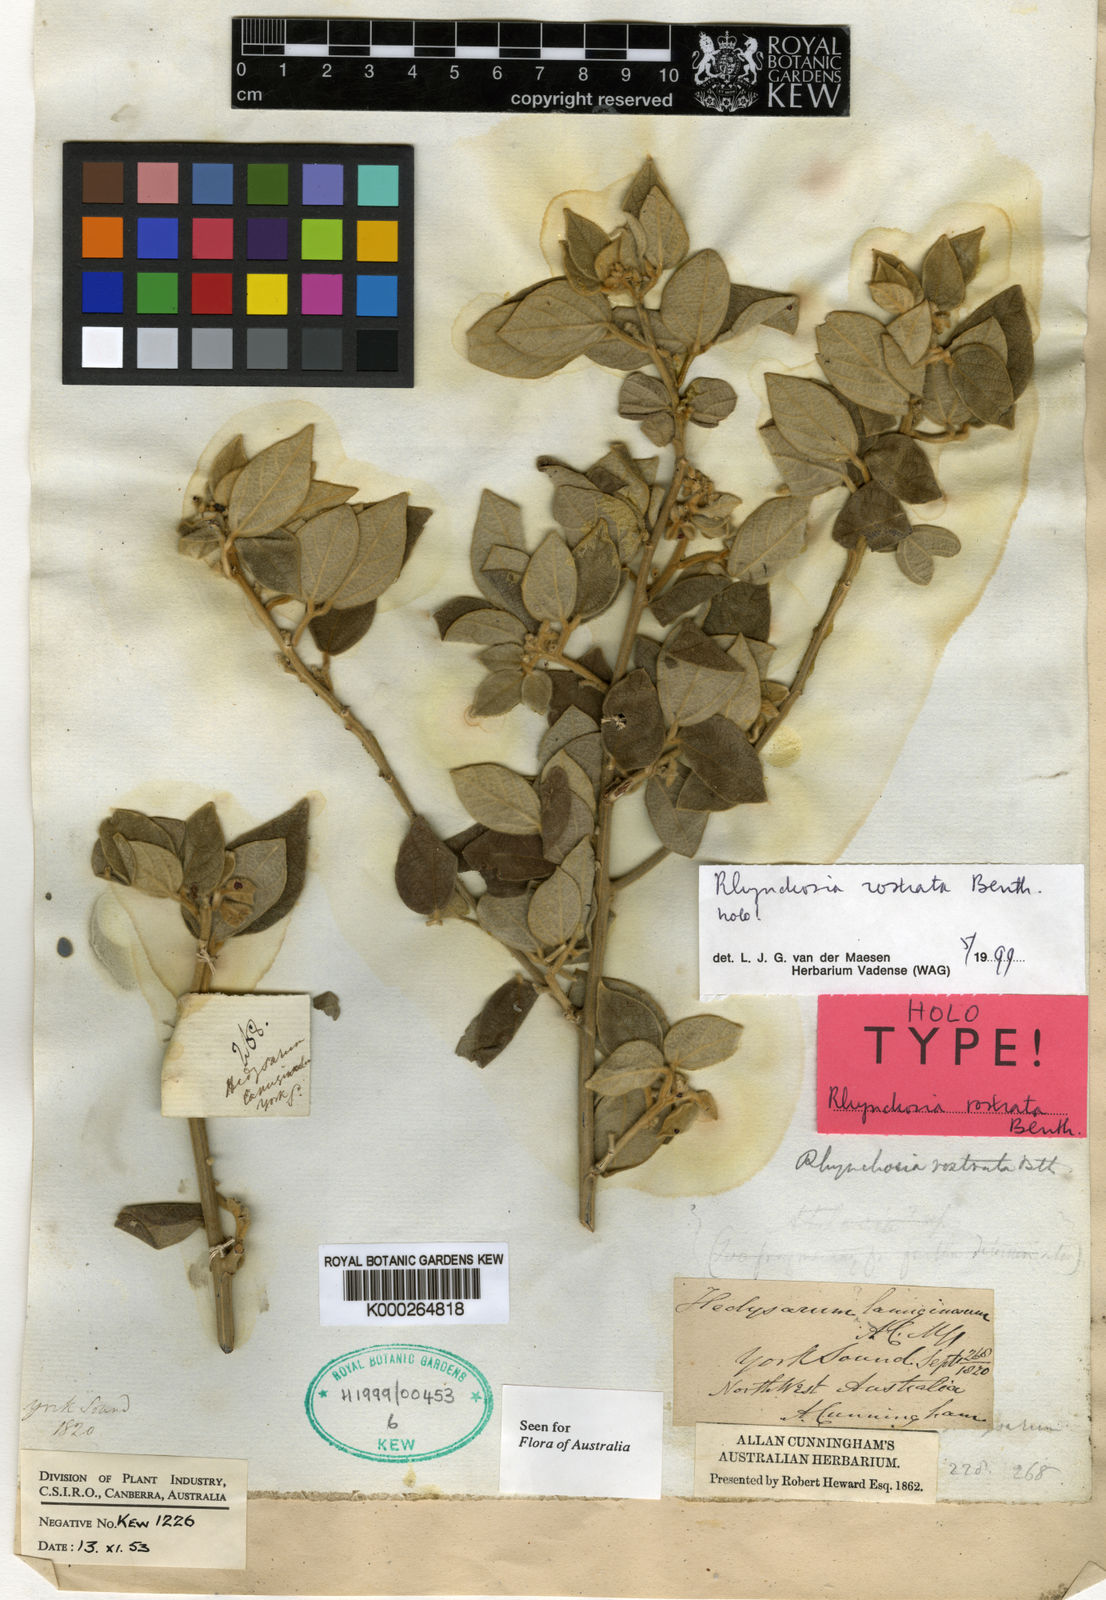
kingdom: Plantae
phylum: Tracheophyta
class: Magnoliopsida
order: Fabales
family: Fabaceae
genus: Rhynchosia
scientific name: Rhynchosia rostrata
